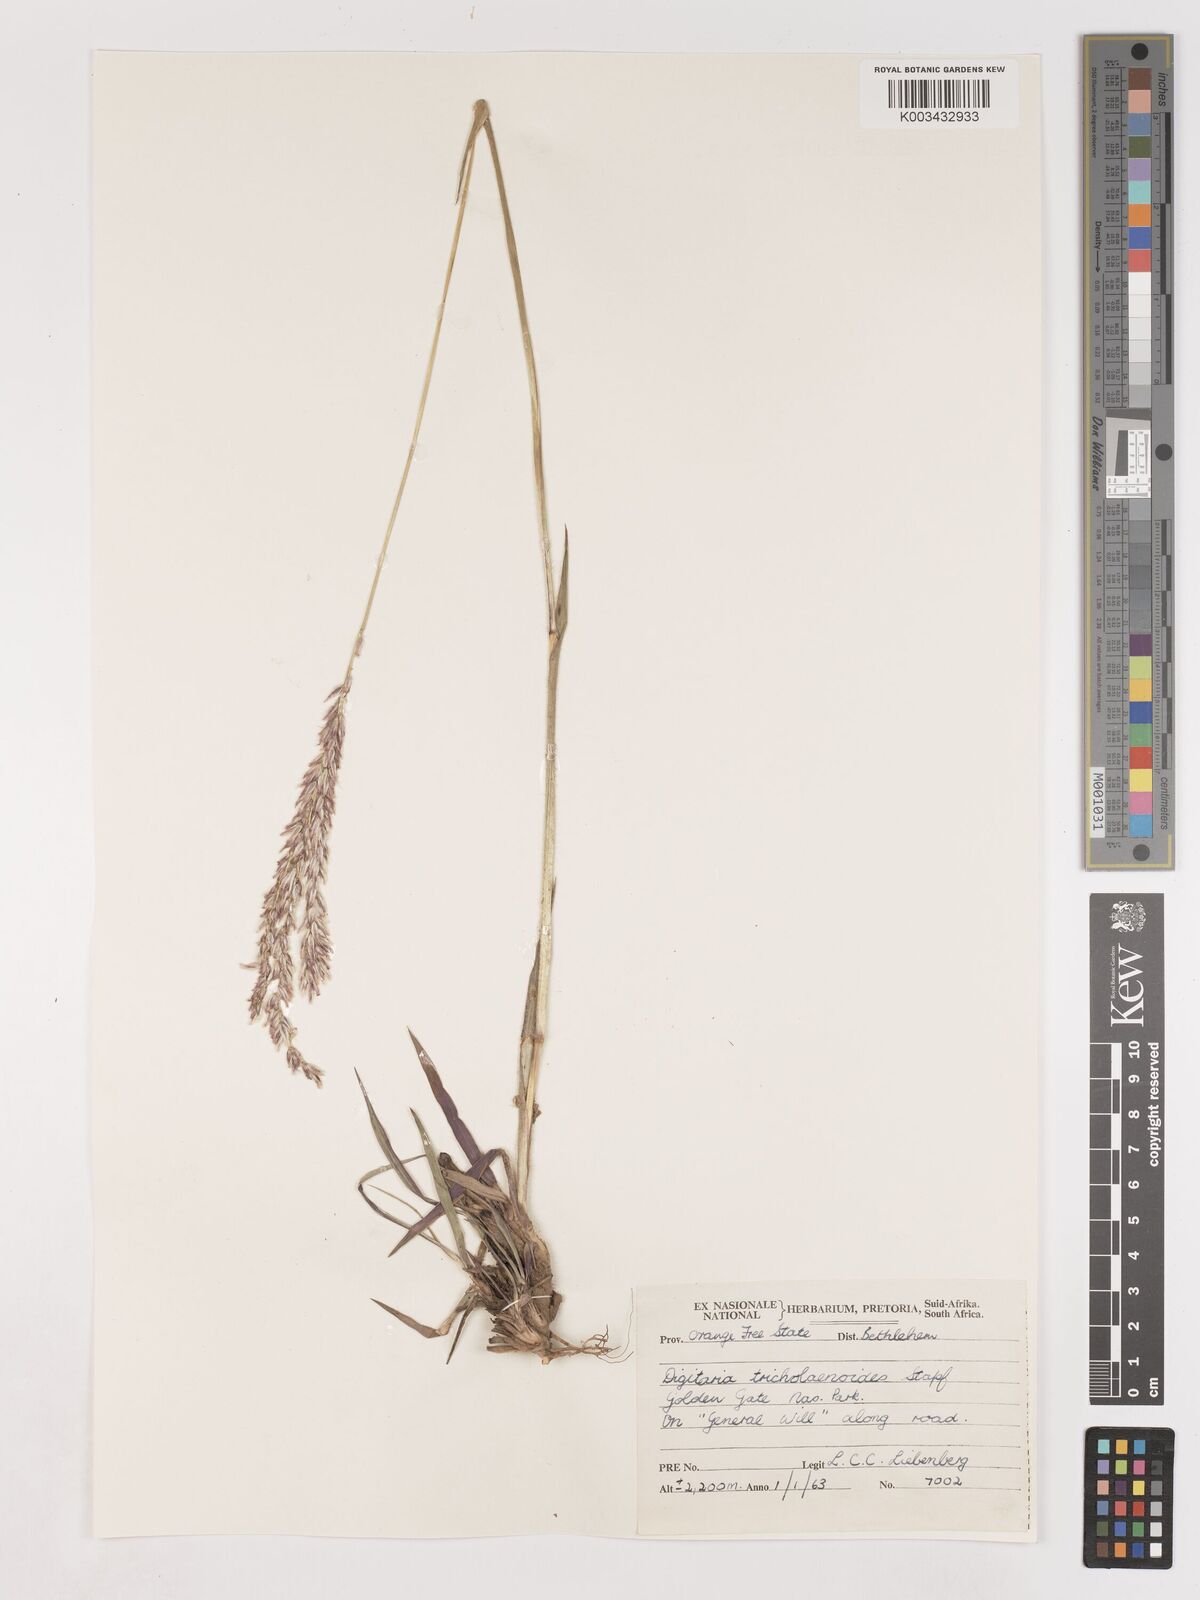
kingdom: Plantae
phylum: Tracheophyta
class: Liliopsida
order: Poales
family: Poaceae
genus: Digitaria
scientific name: Digitaria tricholaenoides
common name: Purple finger grass
